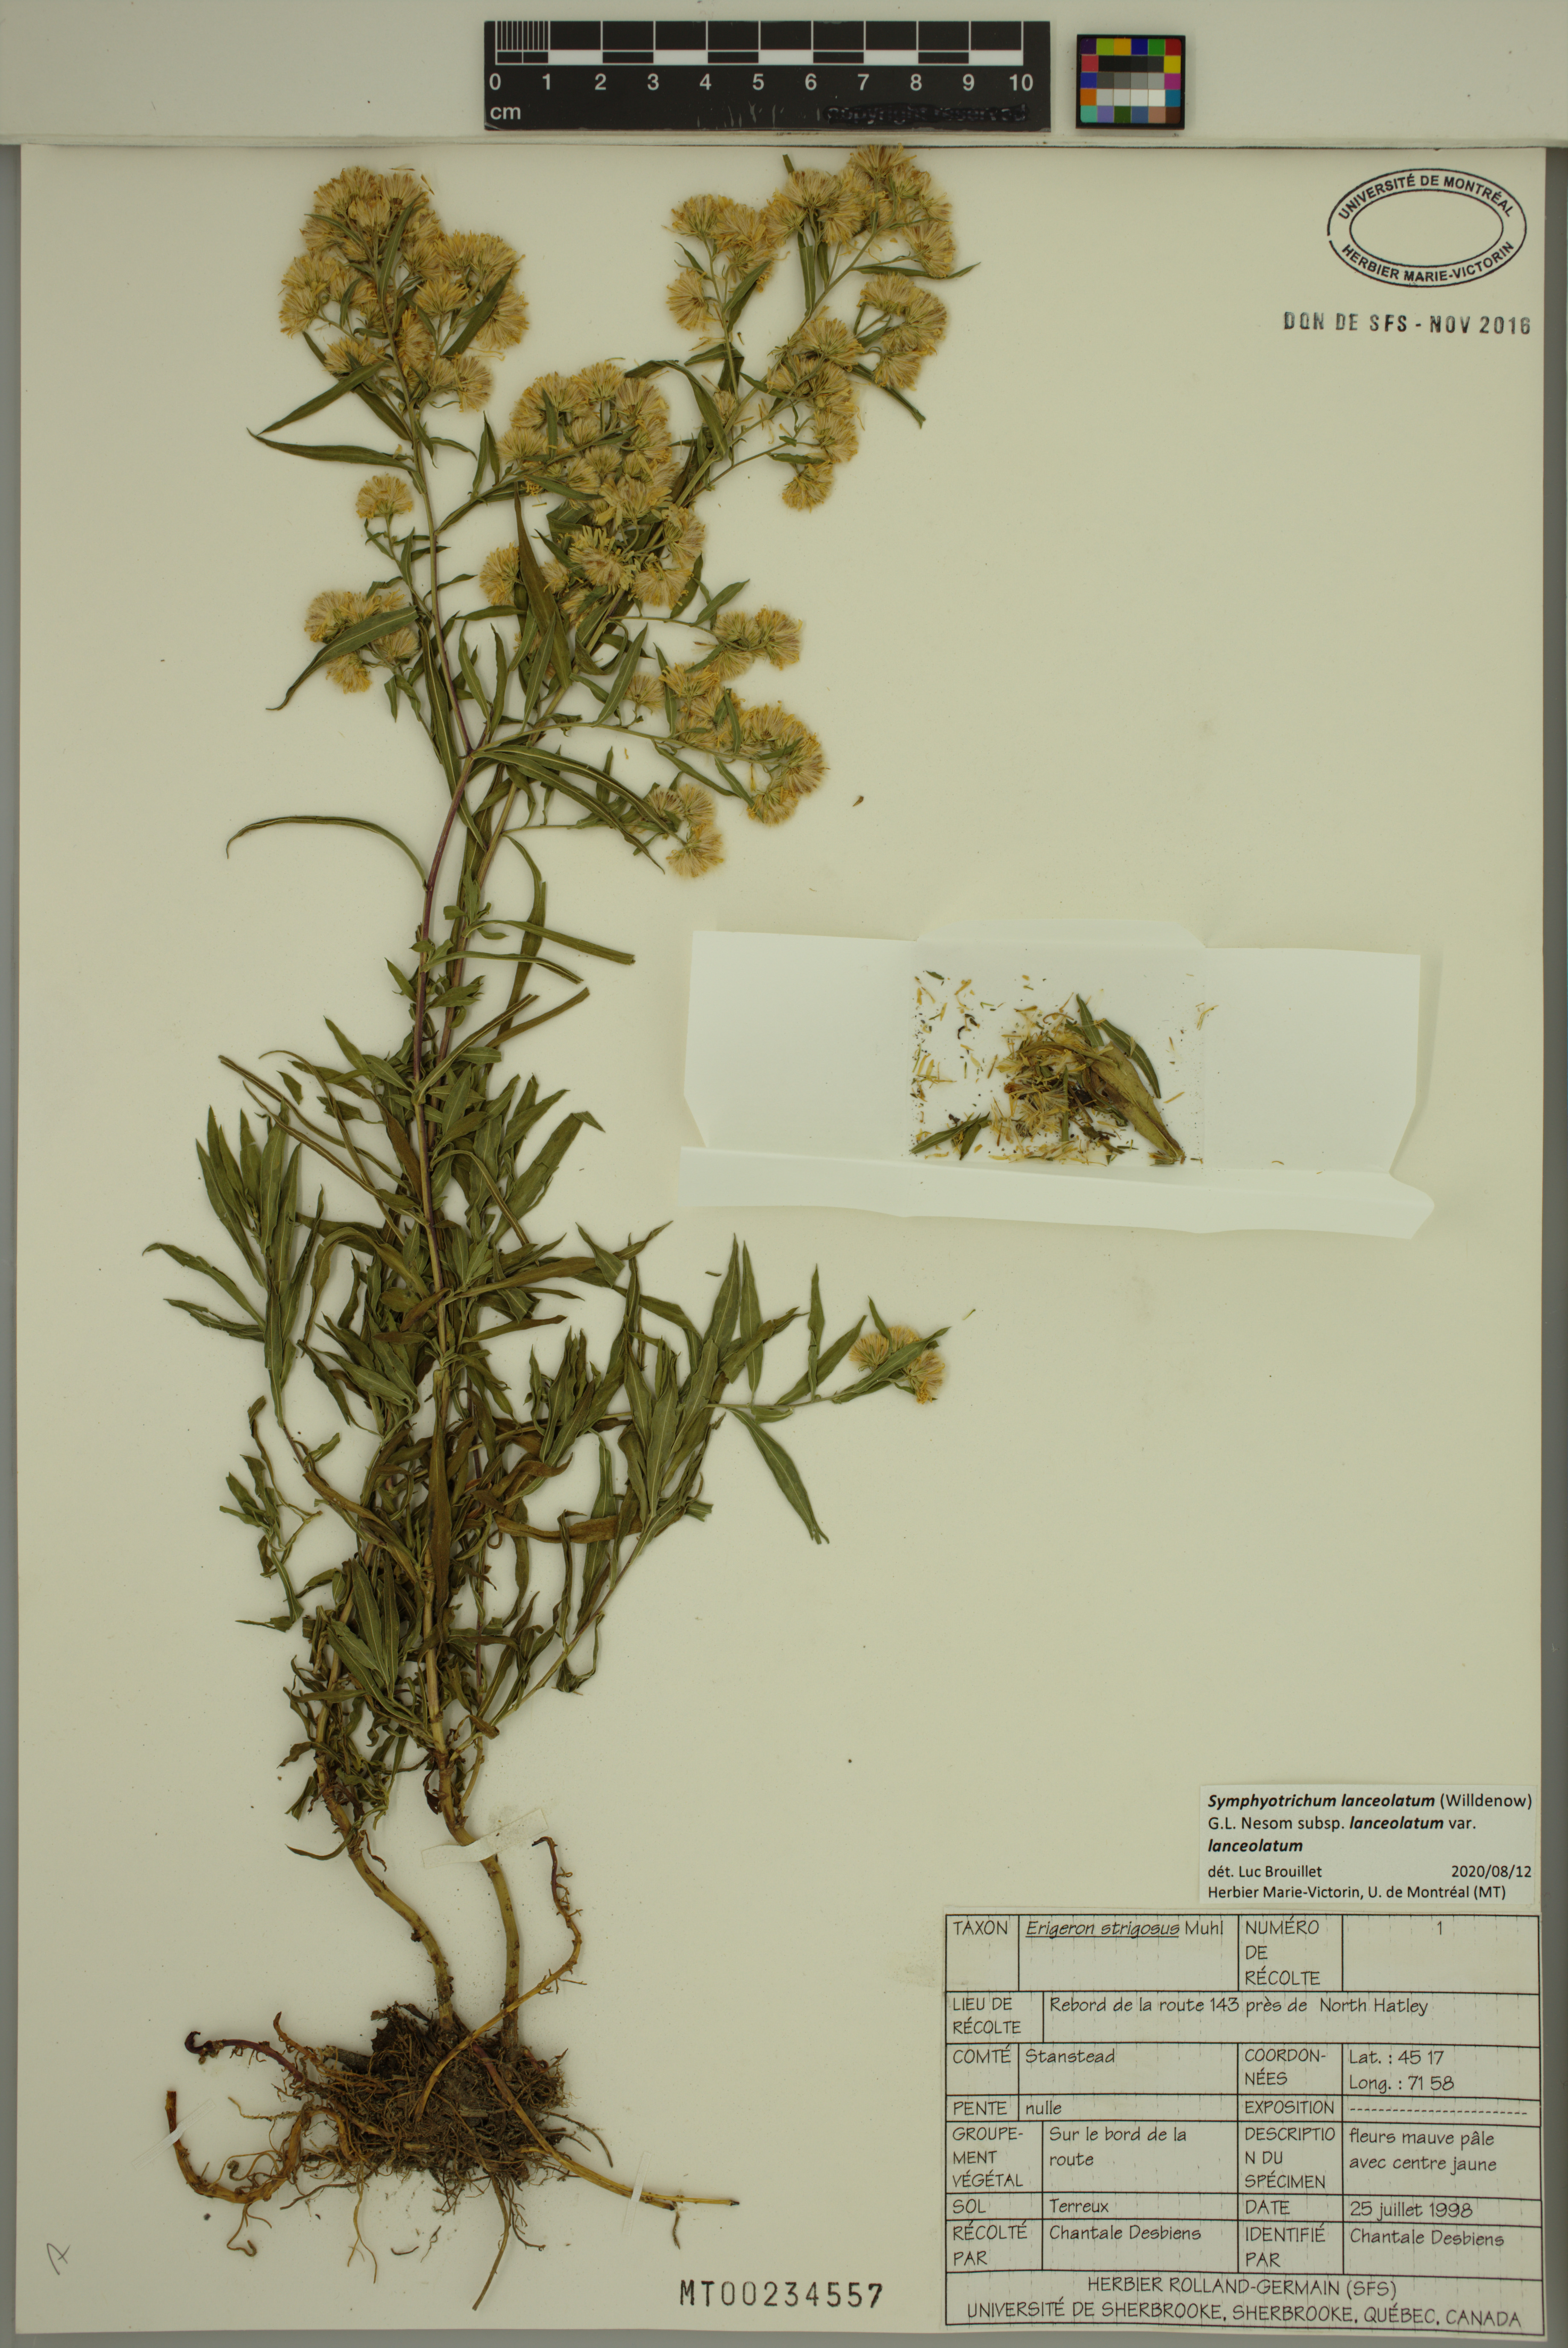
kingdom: Plantae
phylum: Tracheophyta
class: Magnoliopsida
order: Asterales
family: Asteraceae
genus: Symphyotrichum
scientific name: Symphyotrichum lanceolatum
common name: Panicled aster
